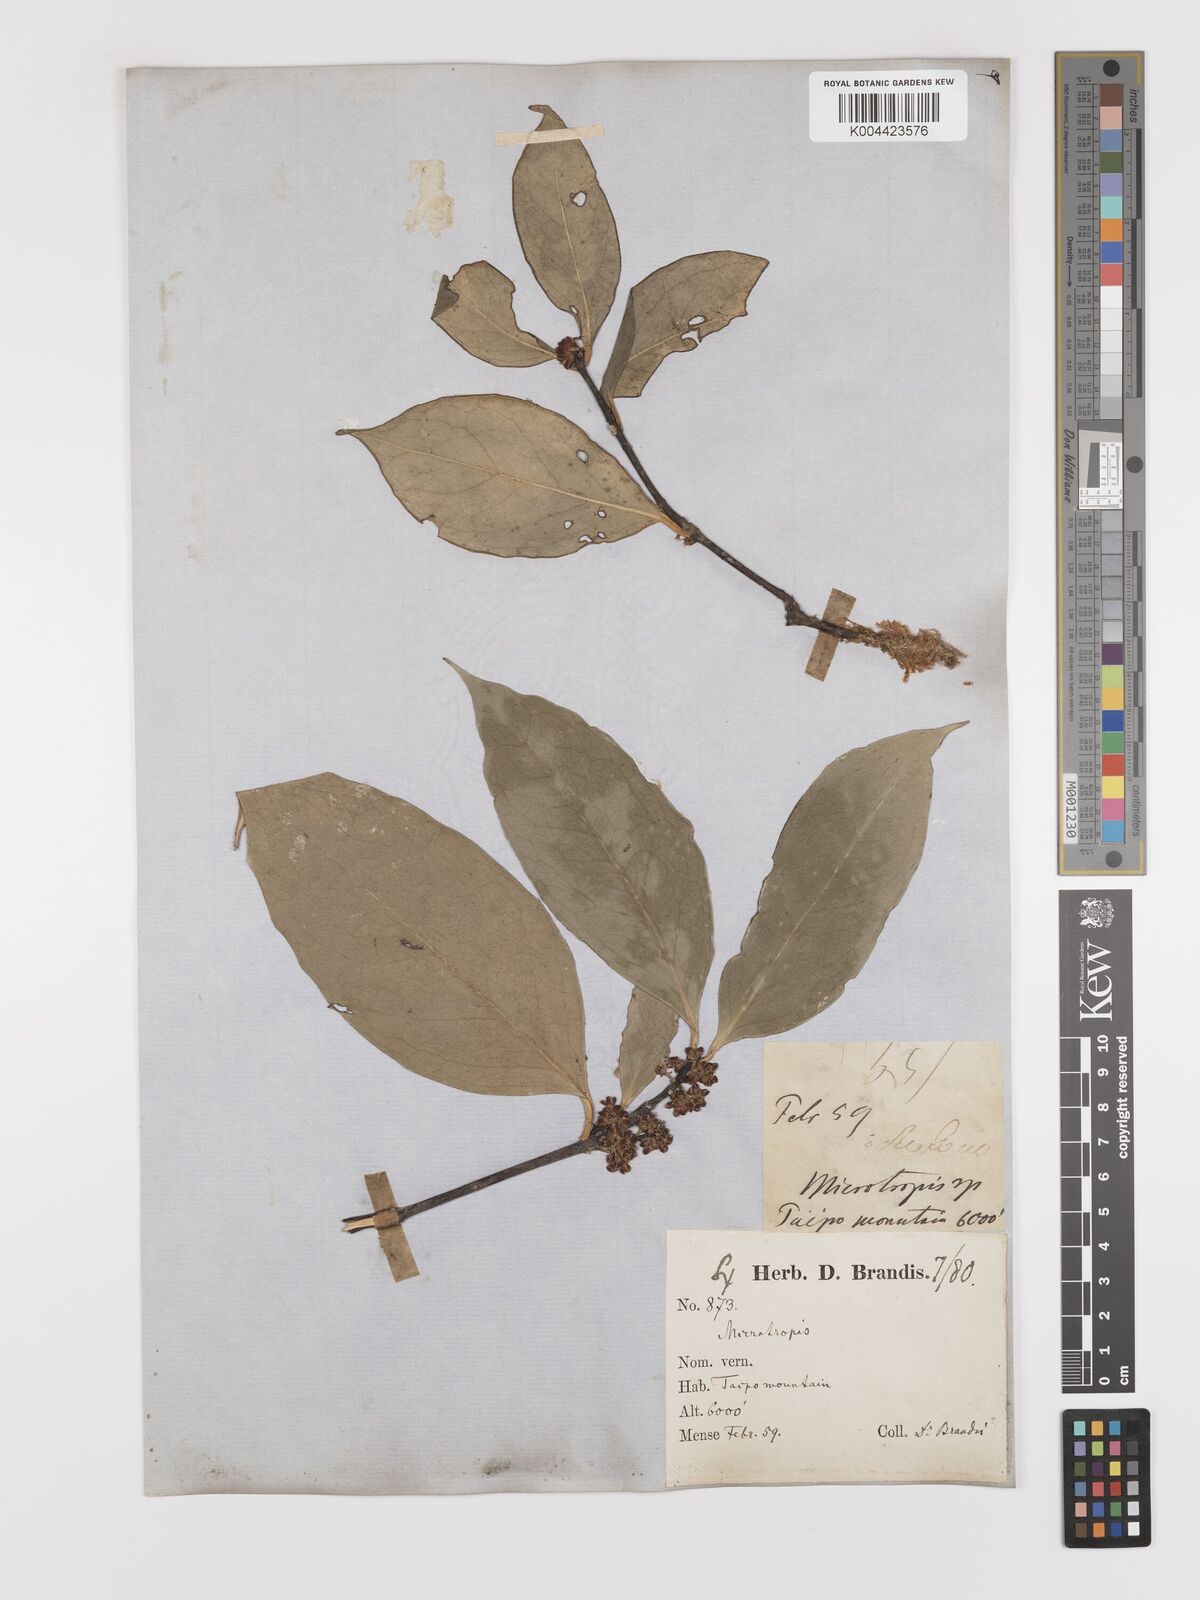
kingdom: Plantae
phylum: Tracheophyta
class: Magnoliopsida
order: Celastrales
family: Celastraceae
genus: Microtropis
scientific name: Microtropis discolor
